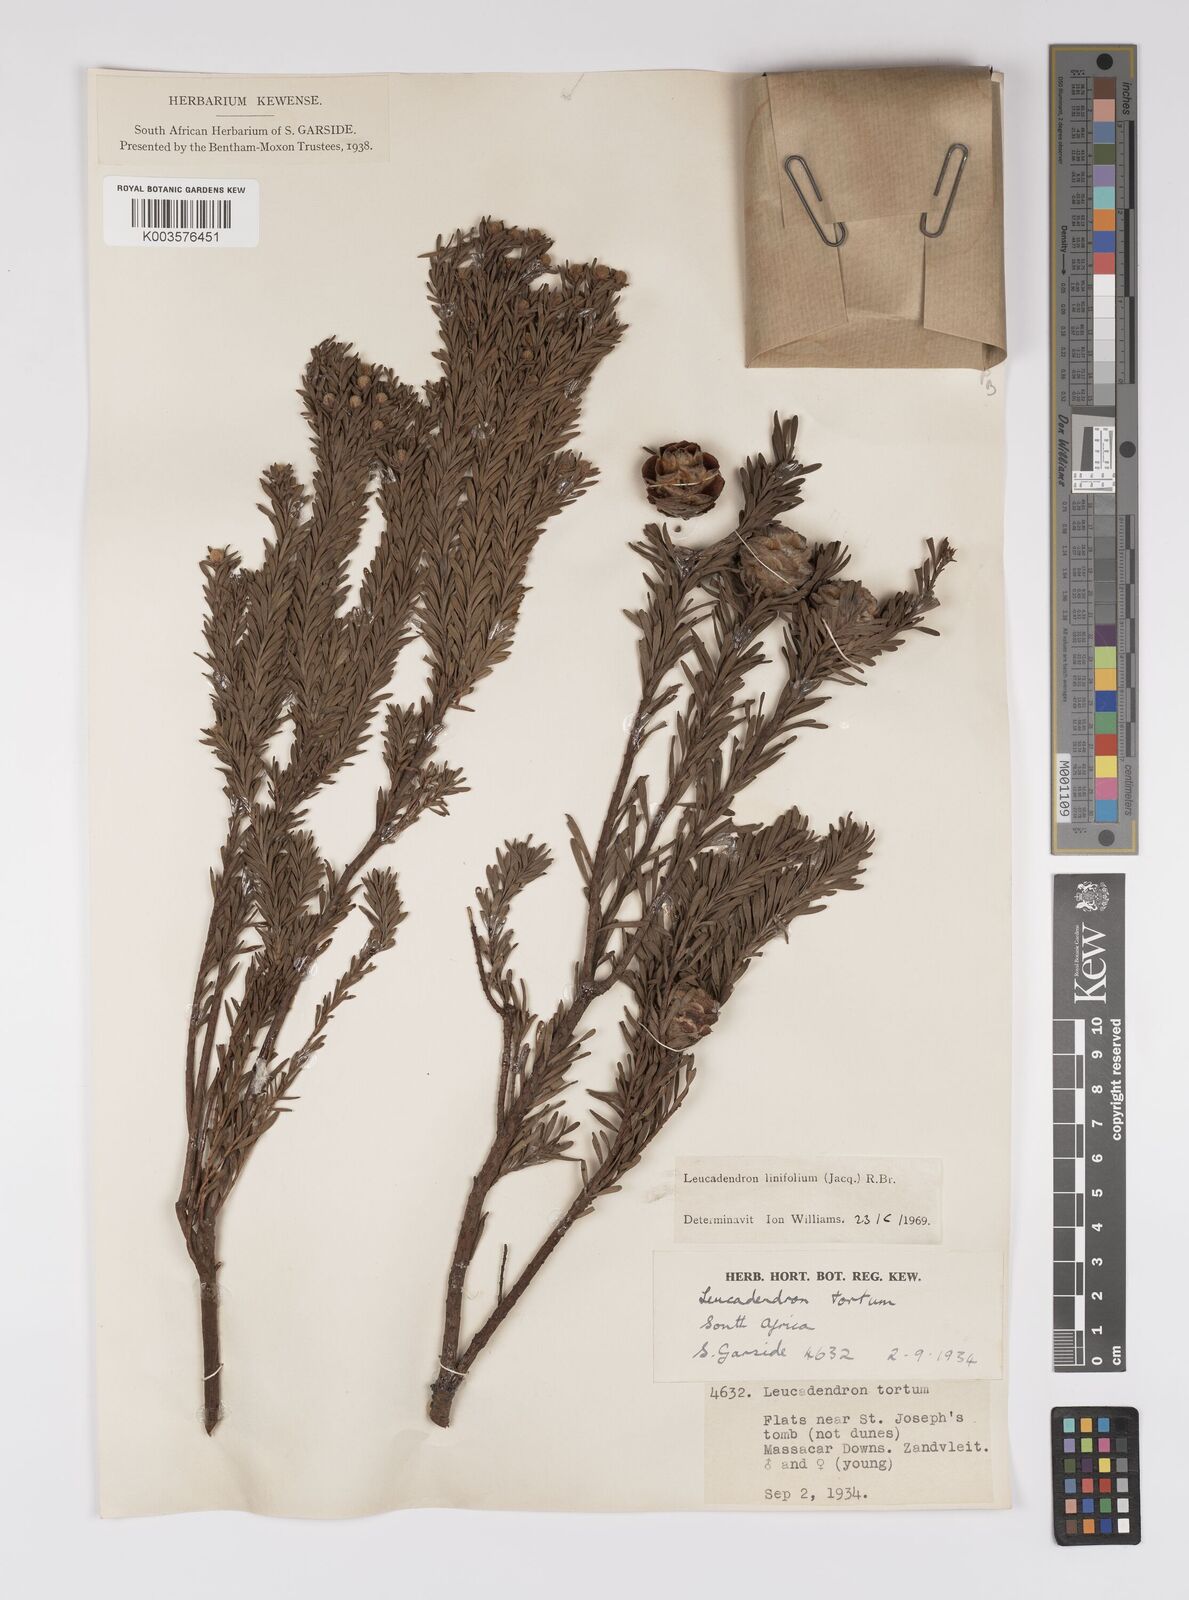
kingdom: Plantae
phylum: Tracheophyta
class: Magnoliopsida
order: Proteales
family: Proteaceae
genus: Leucadendron
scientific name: Leucadendron linifolium
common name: Line-leaf conebush
